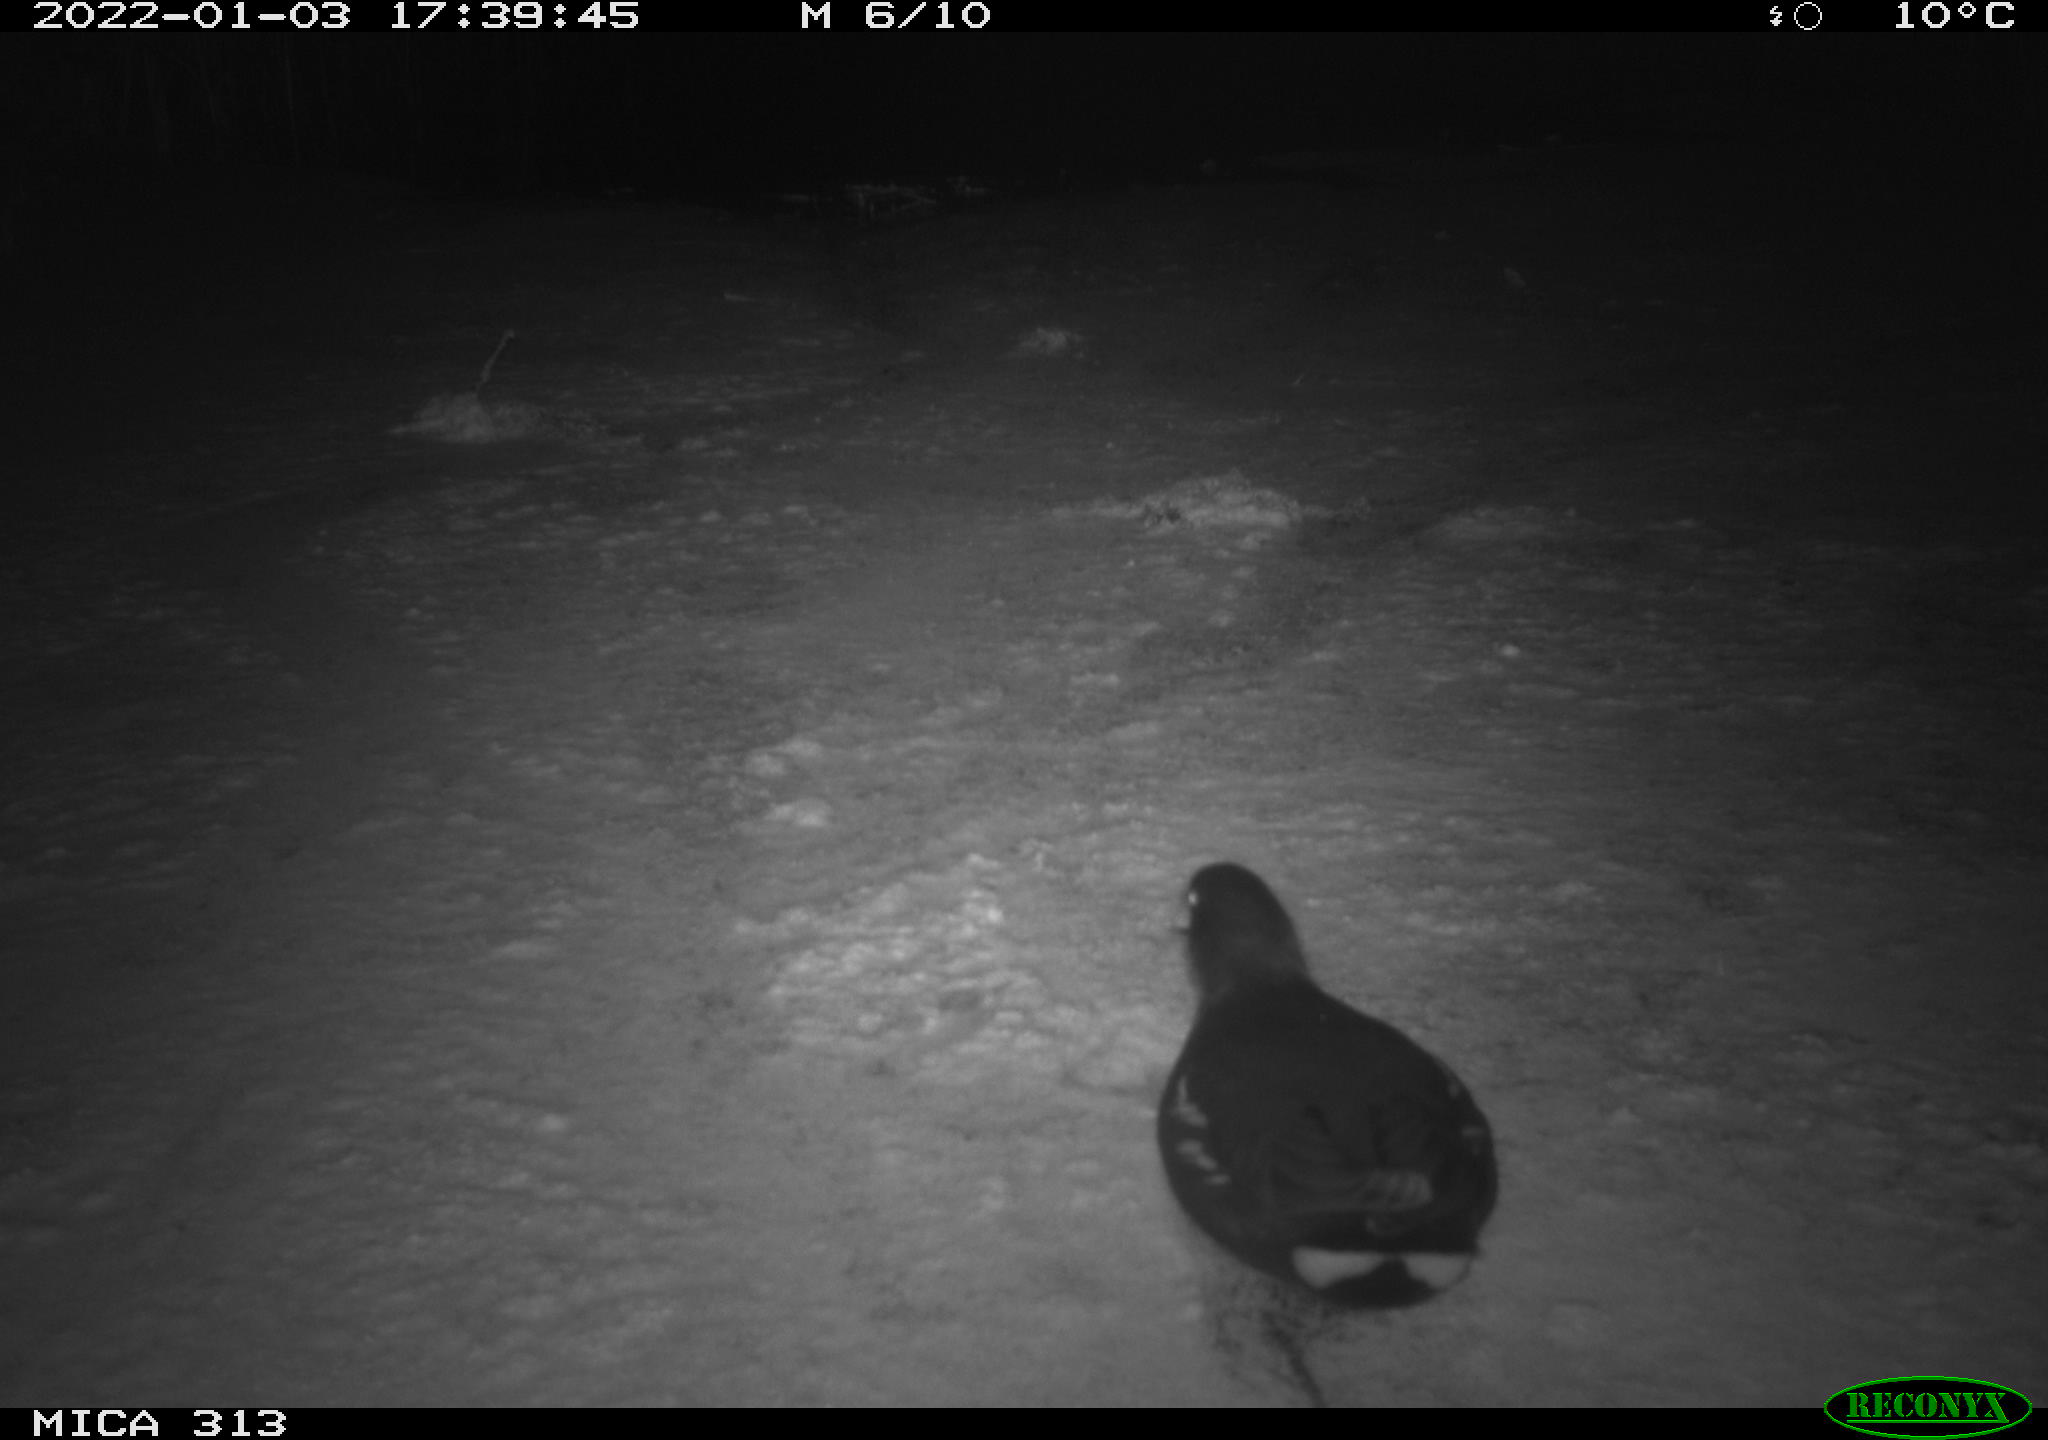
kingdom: Animalia
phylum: Chordata
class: Aves
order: Gruiformes
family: Rallidae
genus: Gallinula
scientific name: Gallinula chloropus
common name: Common moorhen
